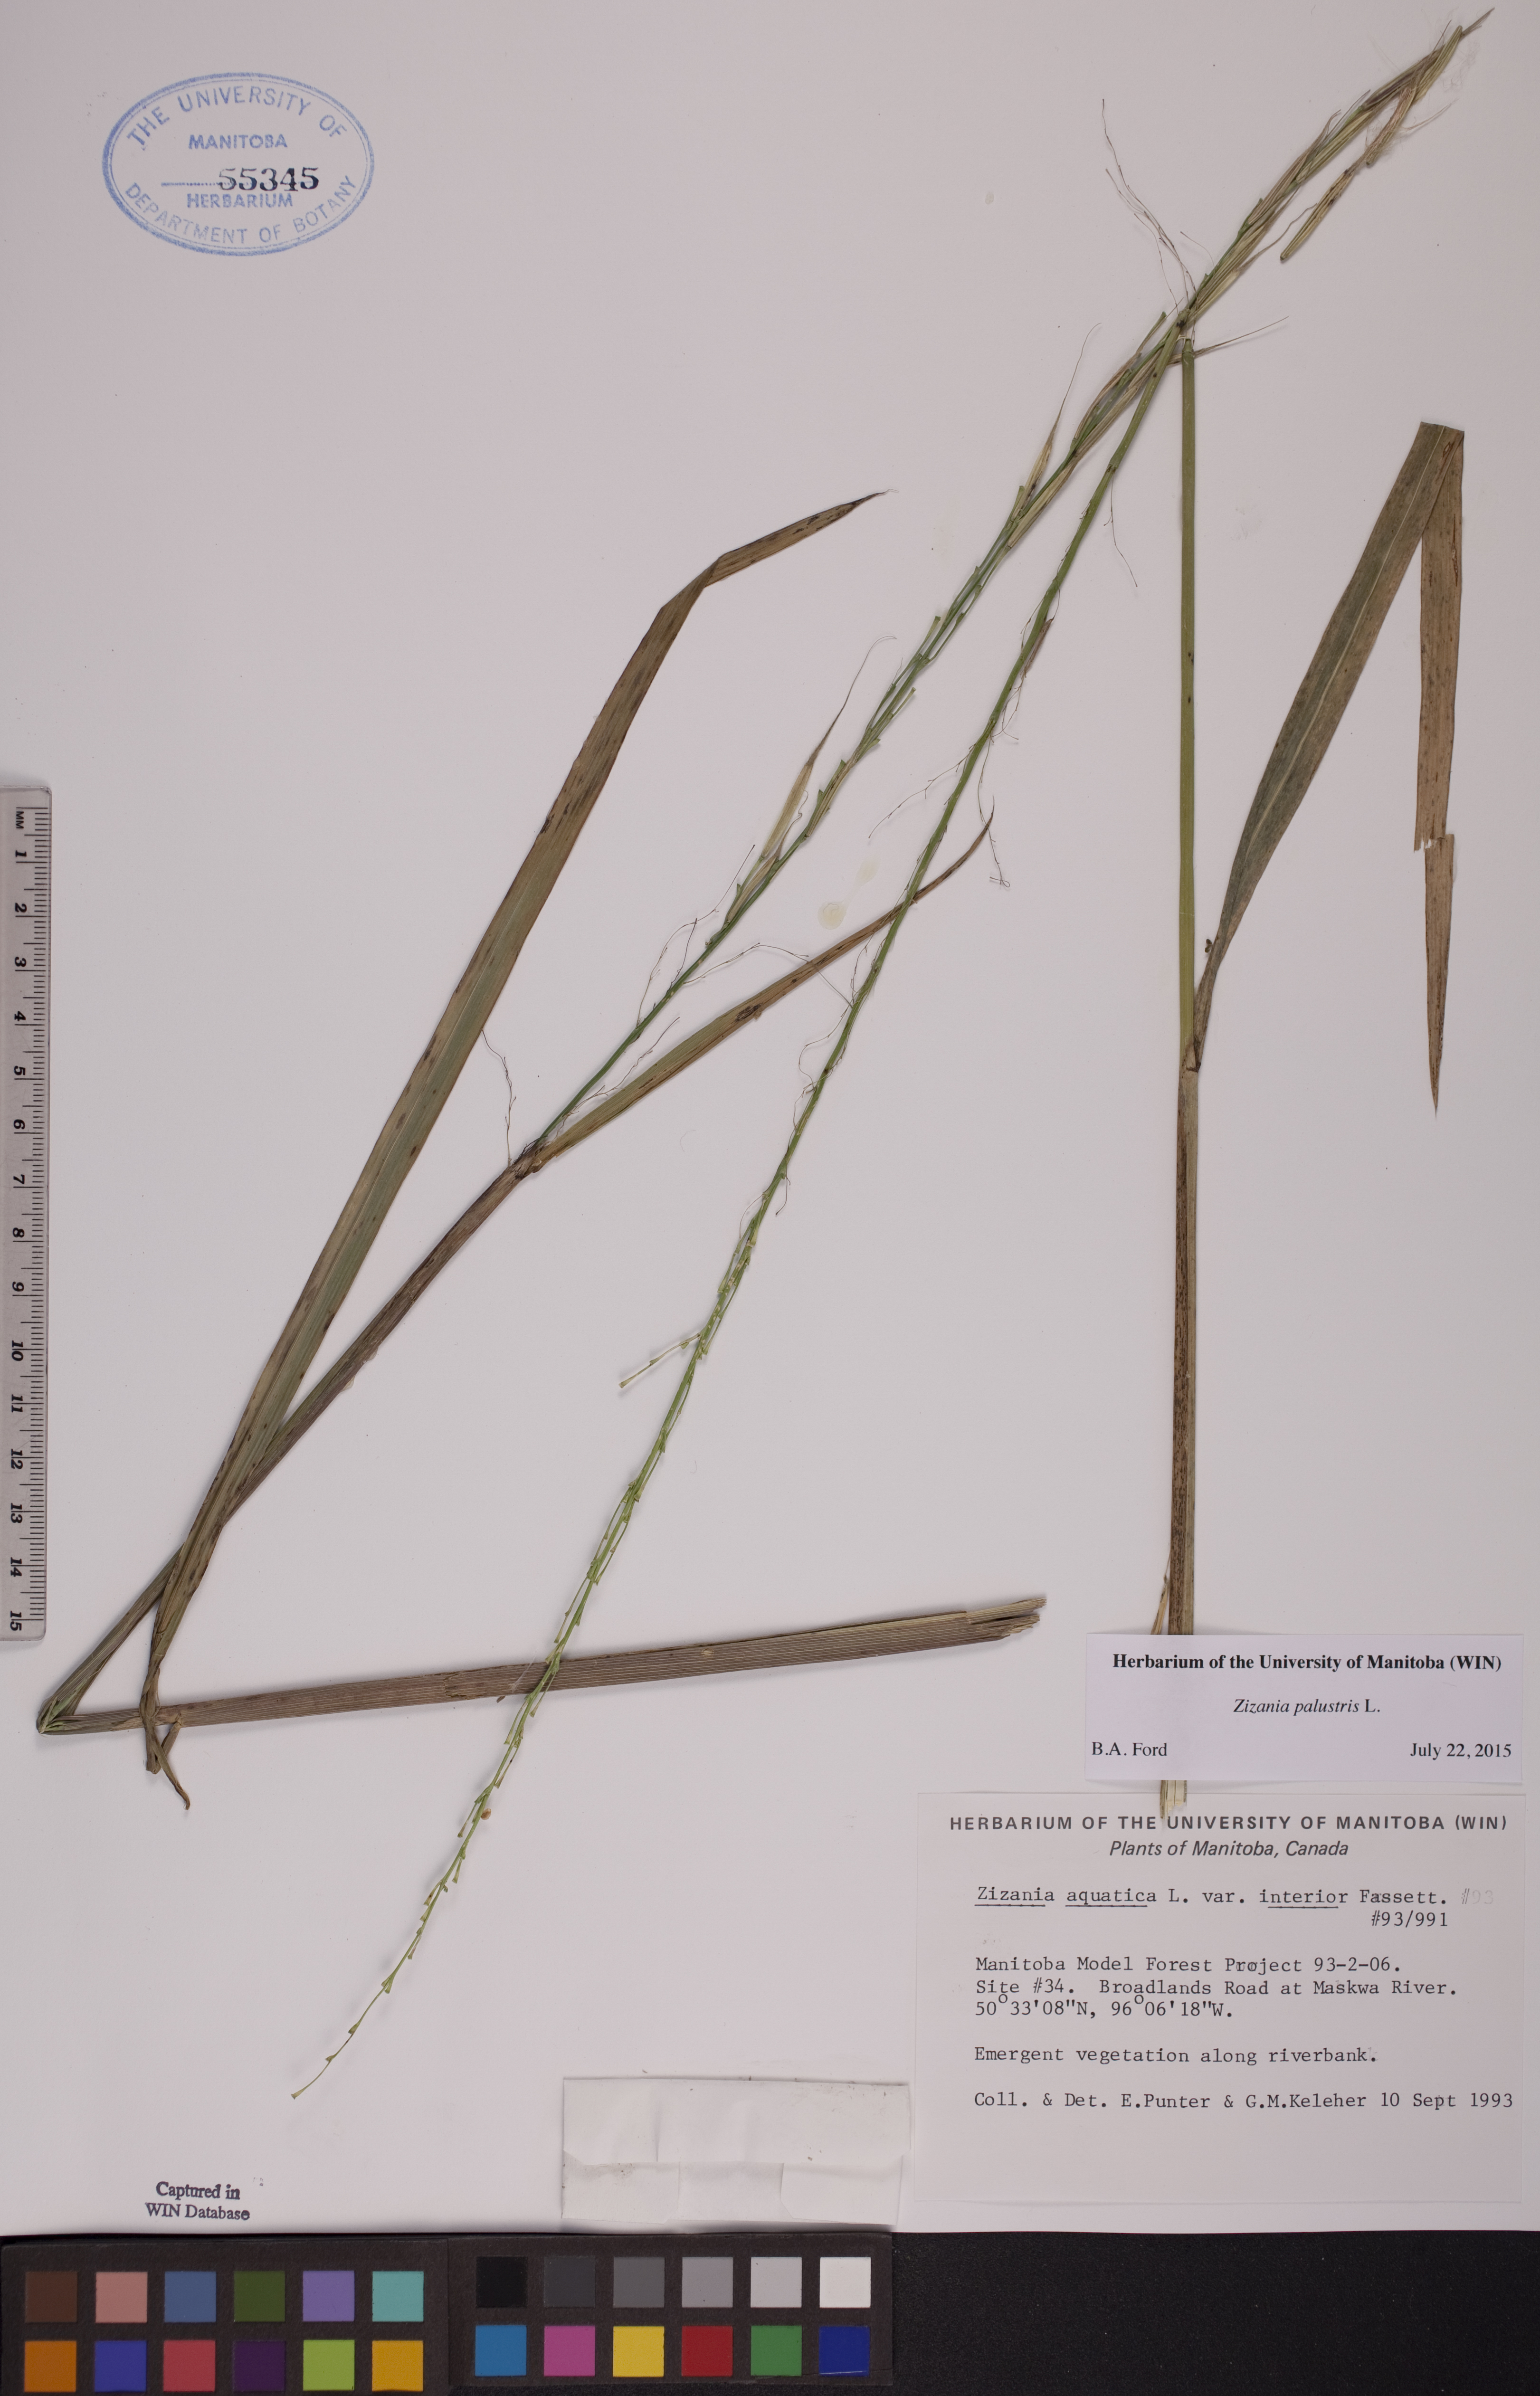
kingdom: Plantae
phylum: Tracheophyta
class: Liliopsida
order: Poales
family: Poaceae
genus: Zizania
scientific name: Zizania palustris
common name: Northern wild rice
